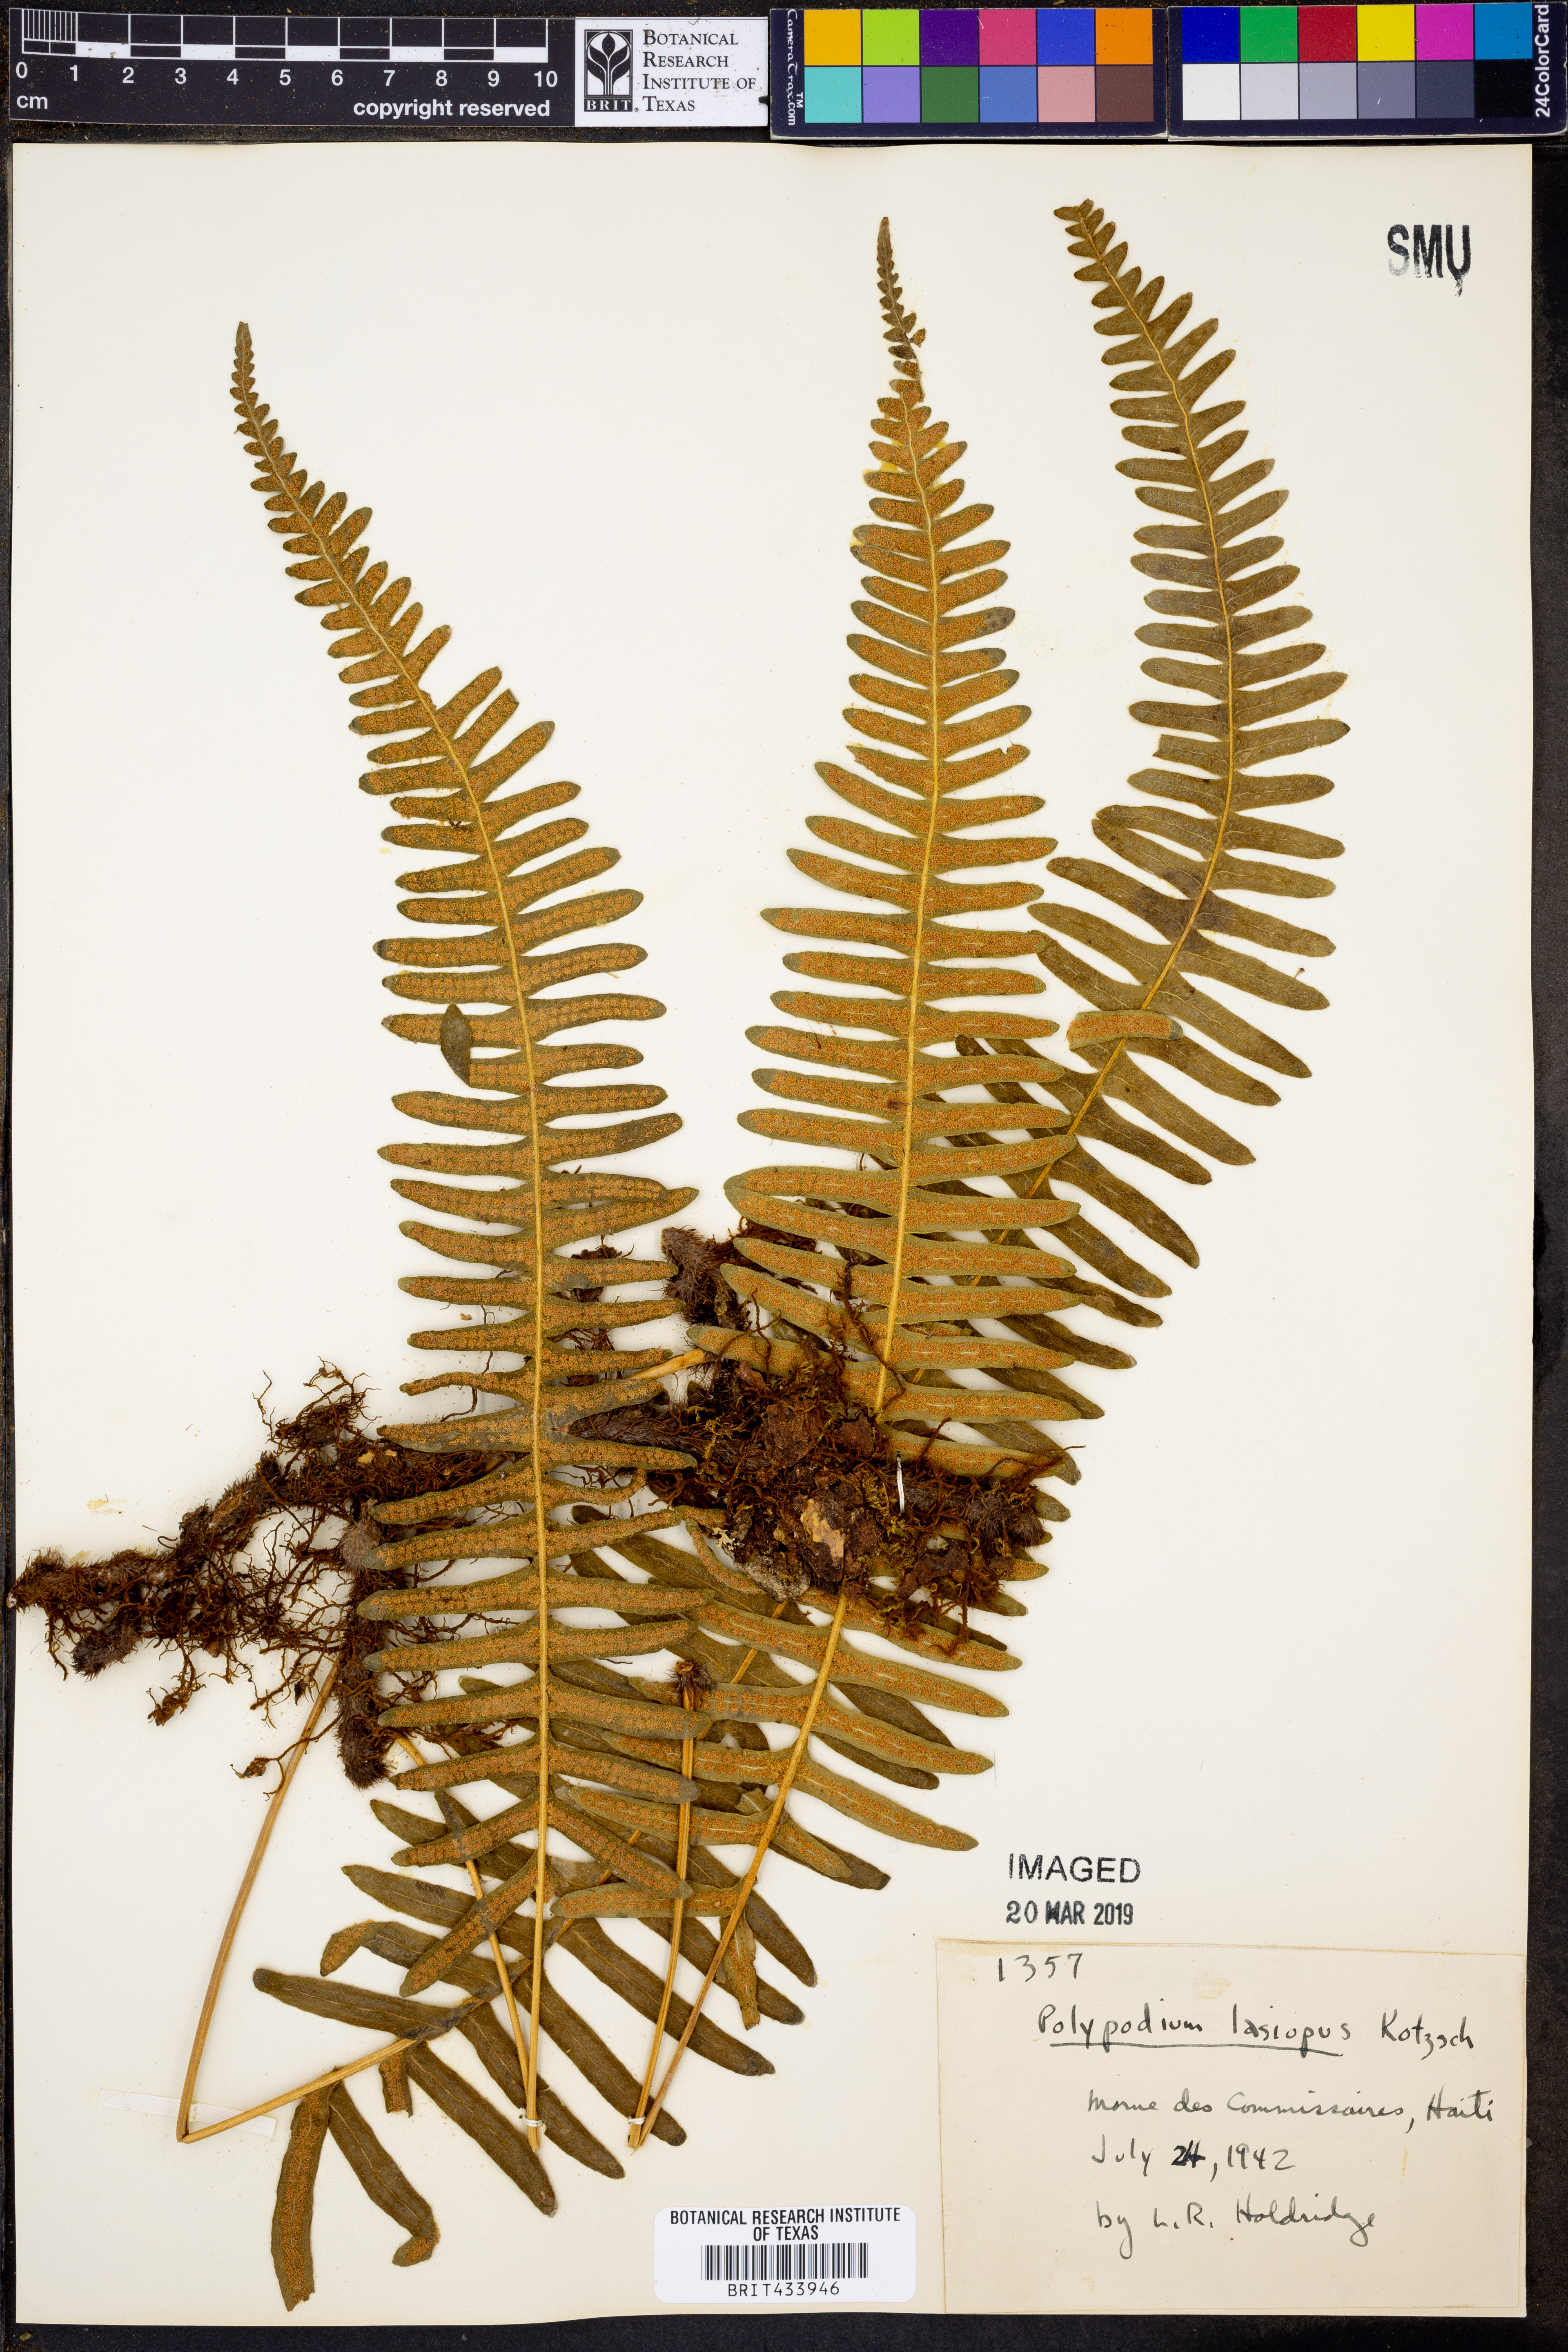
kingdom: Plantae
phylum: Tracheophyta
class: Polypodiopsida
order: Polypodiales
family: Polypodiaceae
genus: Serpocaulon
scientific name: Serpocaulon lasiopus
